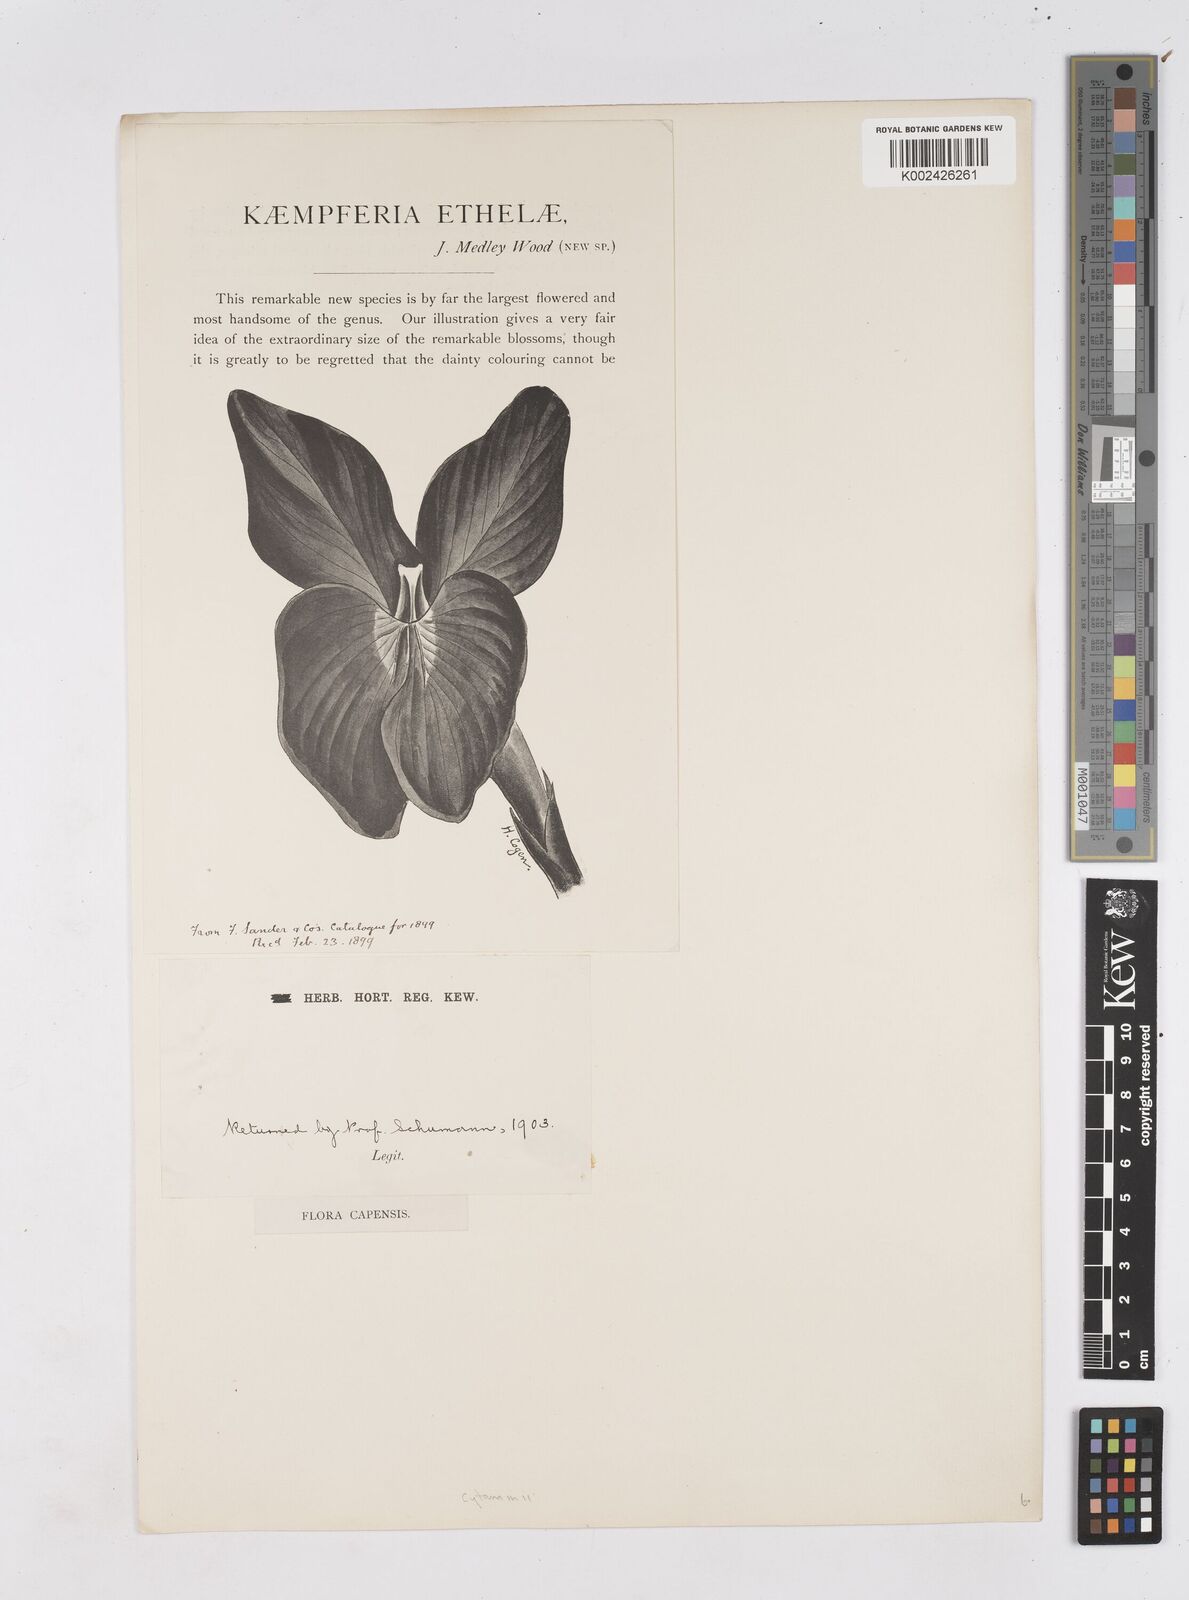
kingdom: Plantae
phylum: Tracheophyta
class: Liliopsida
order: Zingiberales
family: Zingiberaceae
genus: Siphonochilus
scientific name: Siphonochilus
